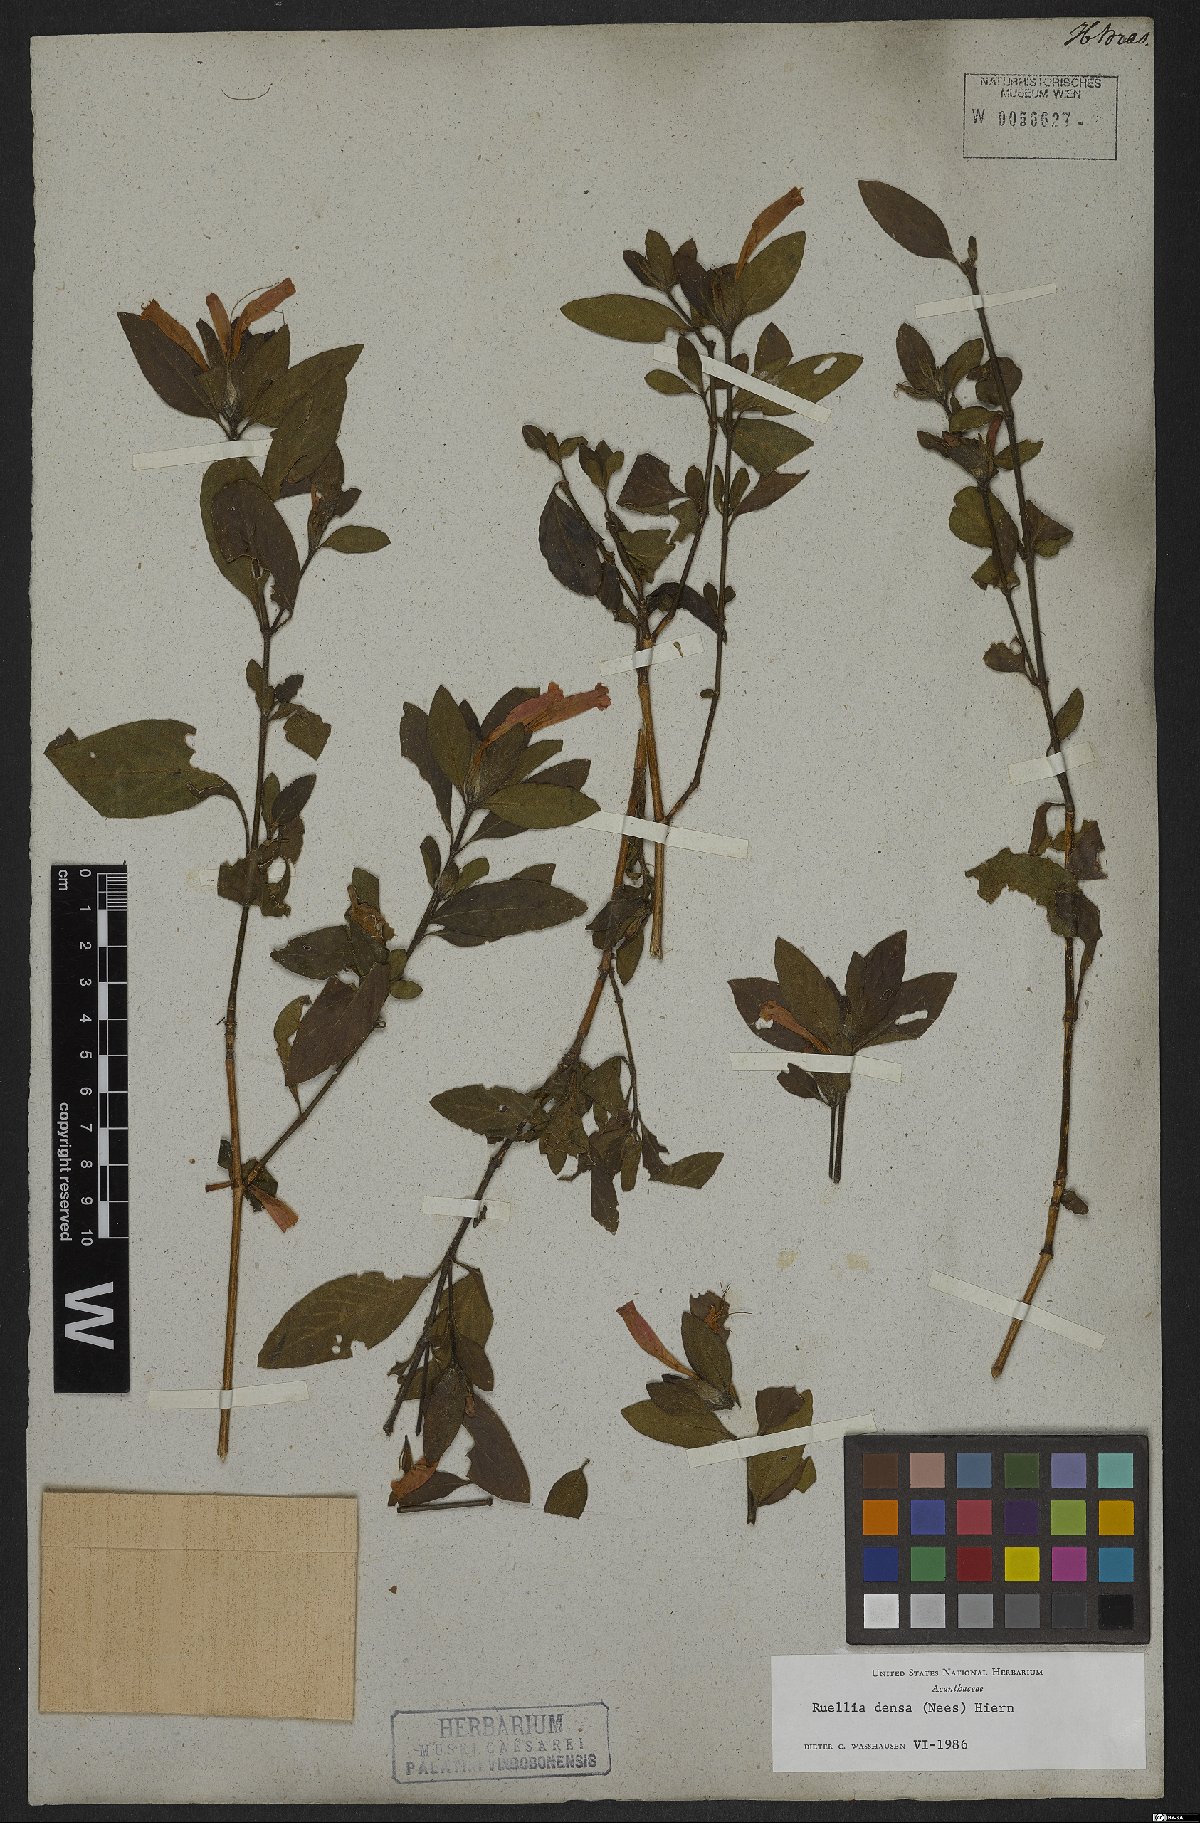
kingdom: Plantae
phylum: Tracheophyta
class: Magnoliopsida
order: Lamiales
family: Acanthaceae
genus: Ruellia
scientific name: Ruellia densa
